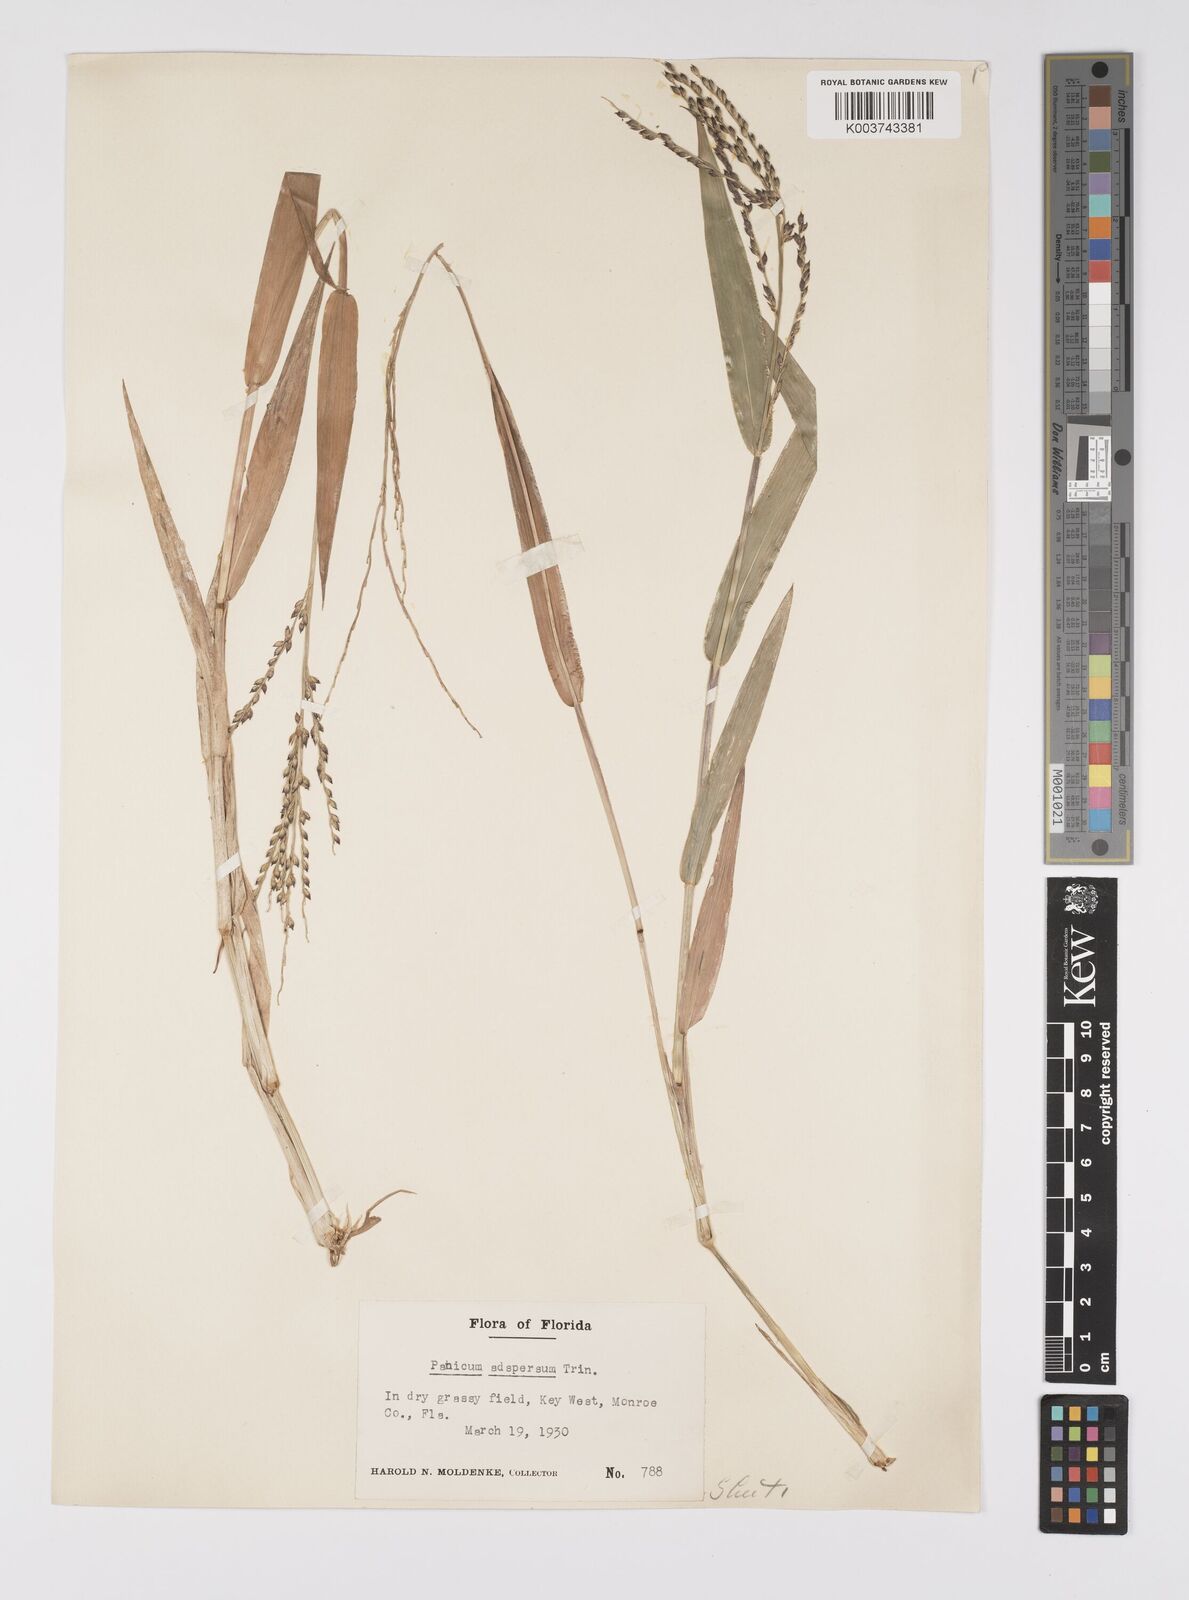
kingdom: Plantae
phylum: Tracheophyta
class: Liliopsida
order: Poales
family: Poaceae
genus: Urochloa
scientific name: Urochloa adspersa
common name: Dominican signal grass
